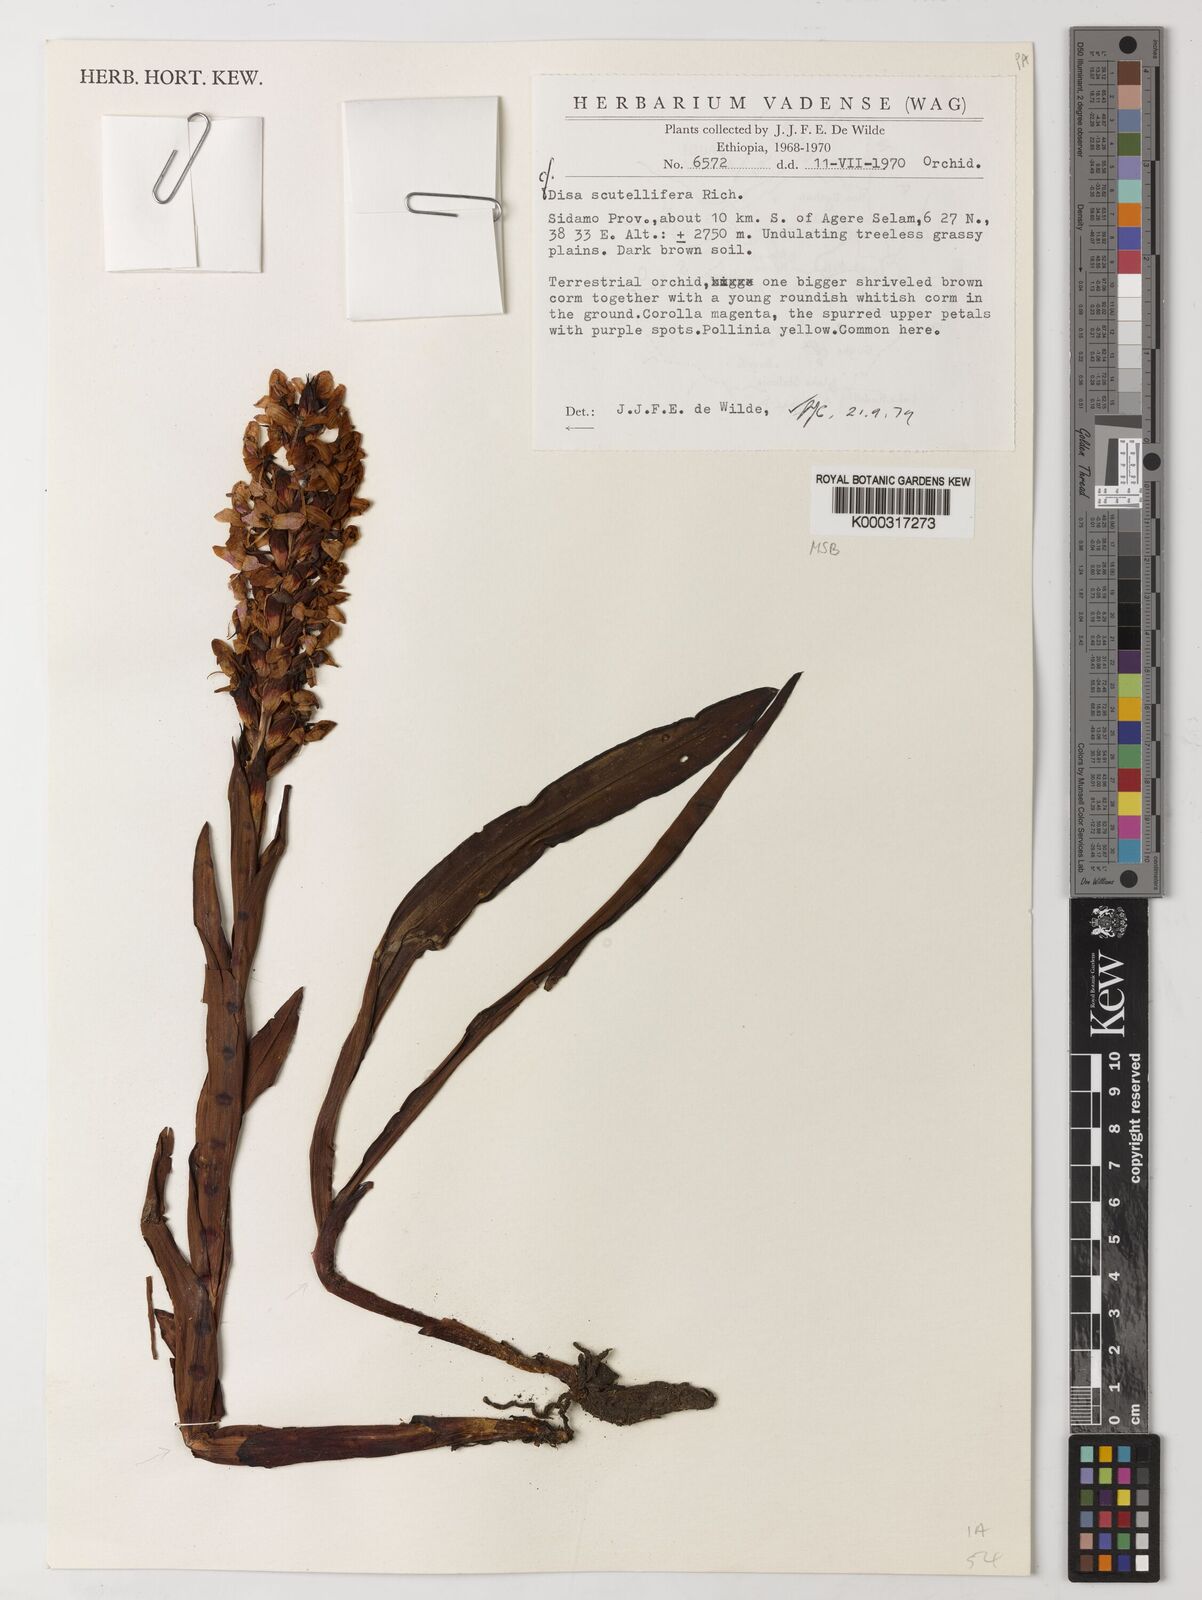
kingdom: Plantae
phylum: Tracheophyta
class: Liliopsida
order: Asparagales
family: Orchidaceae
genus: Disa
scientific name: Disa scutellifera
